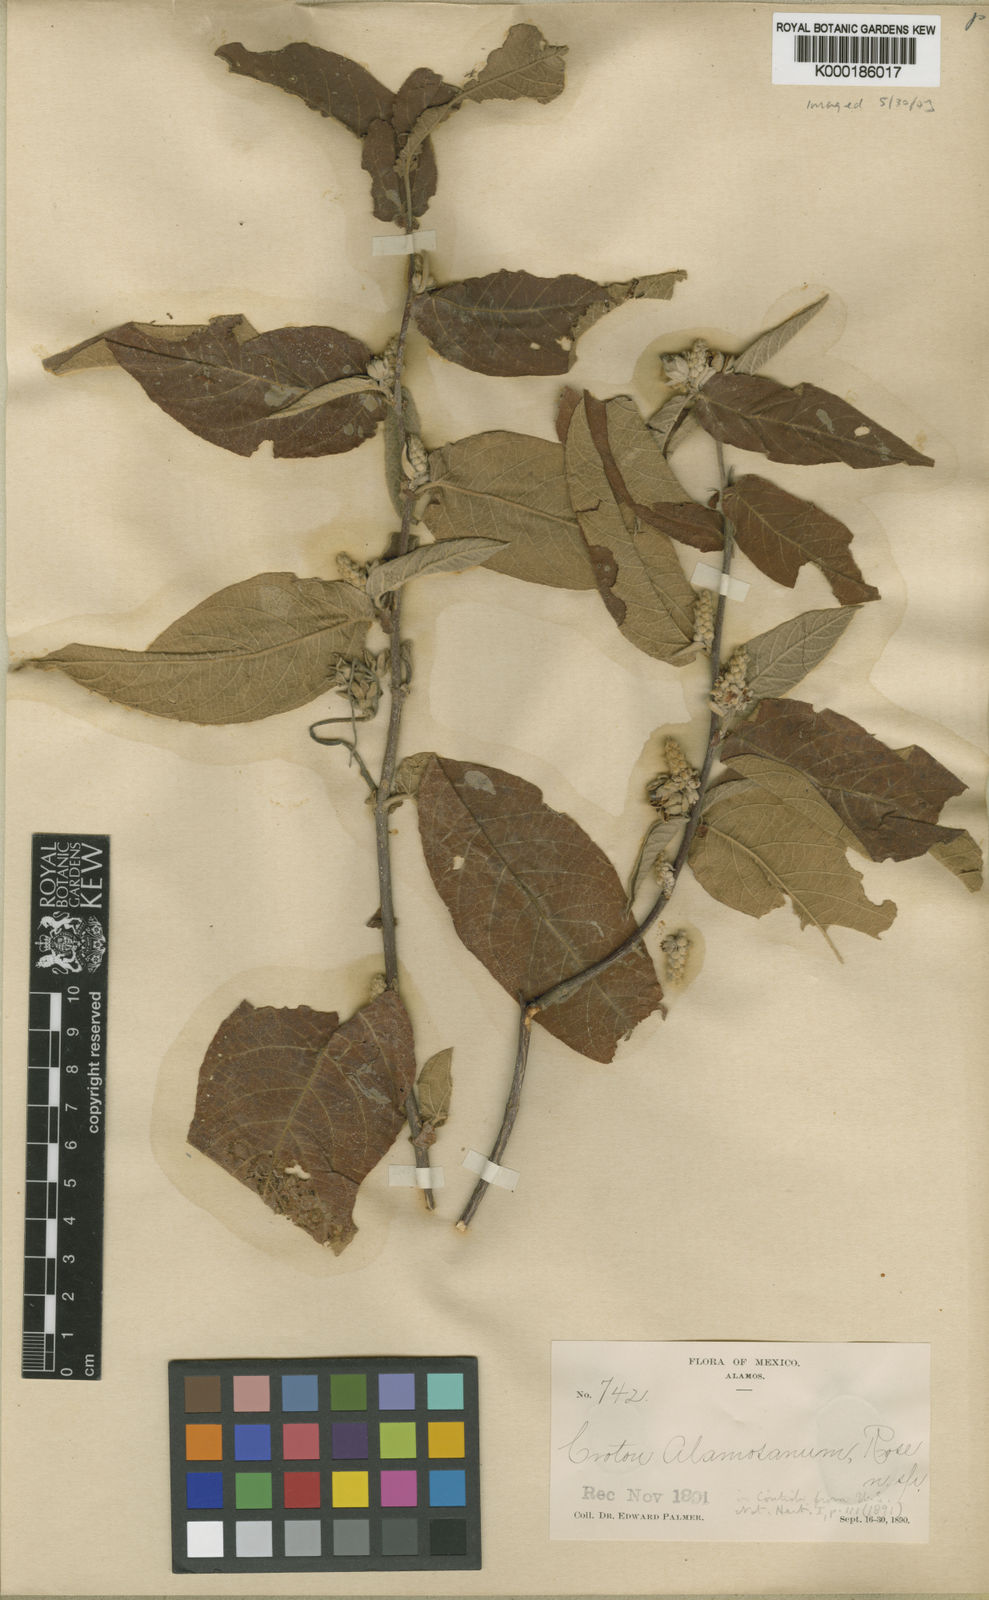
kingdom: Plantae
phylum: Tracheophyta
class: Magnoliopsida
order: Malpighiales
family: Euphorbiaceae
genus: Croton
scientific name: Croton alamosanus
